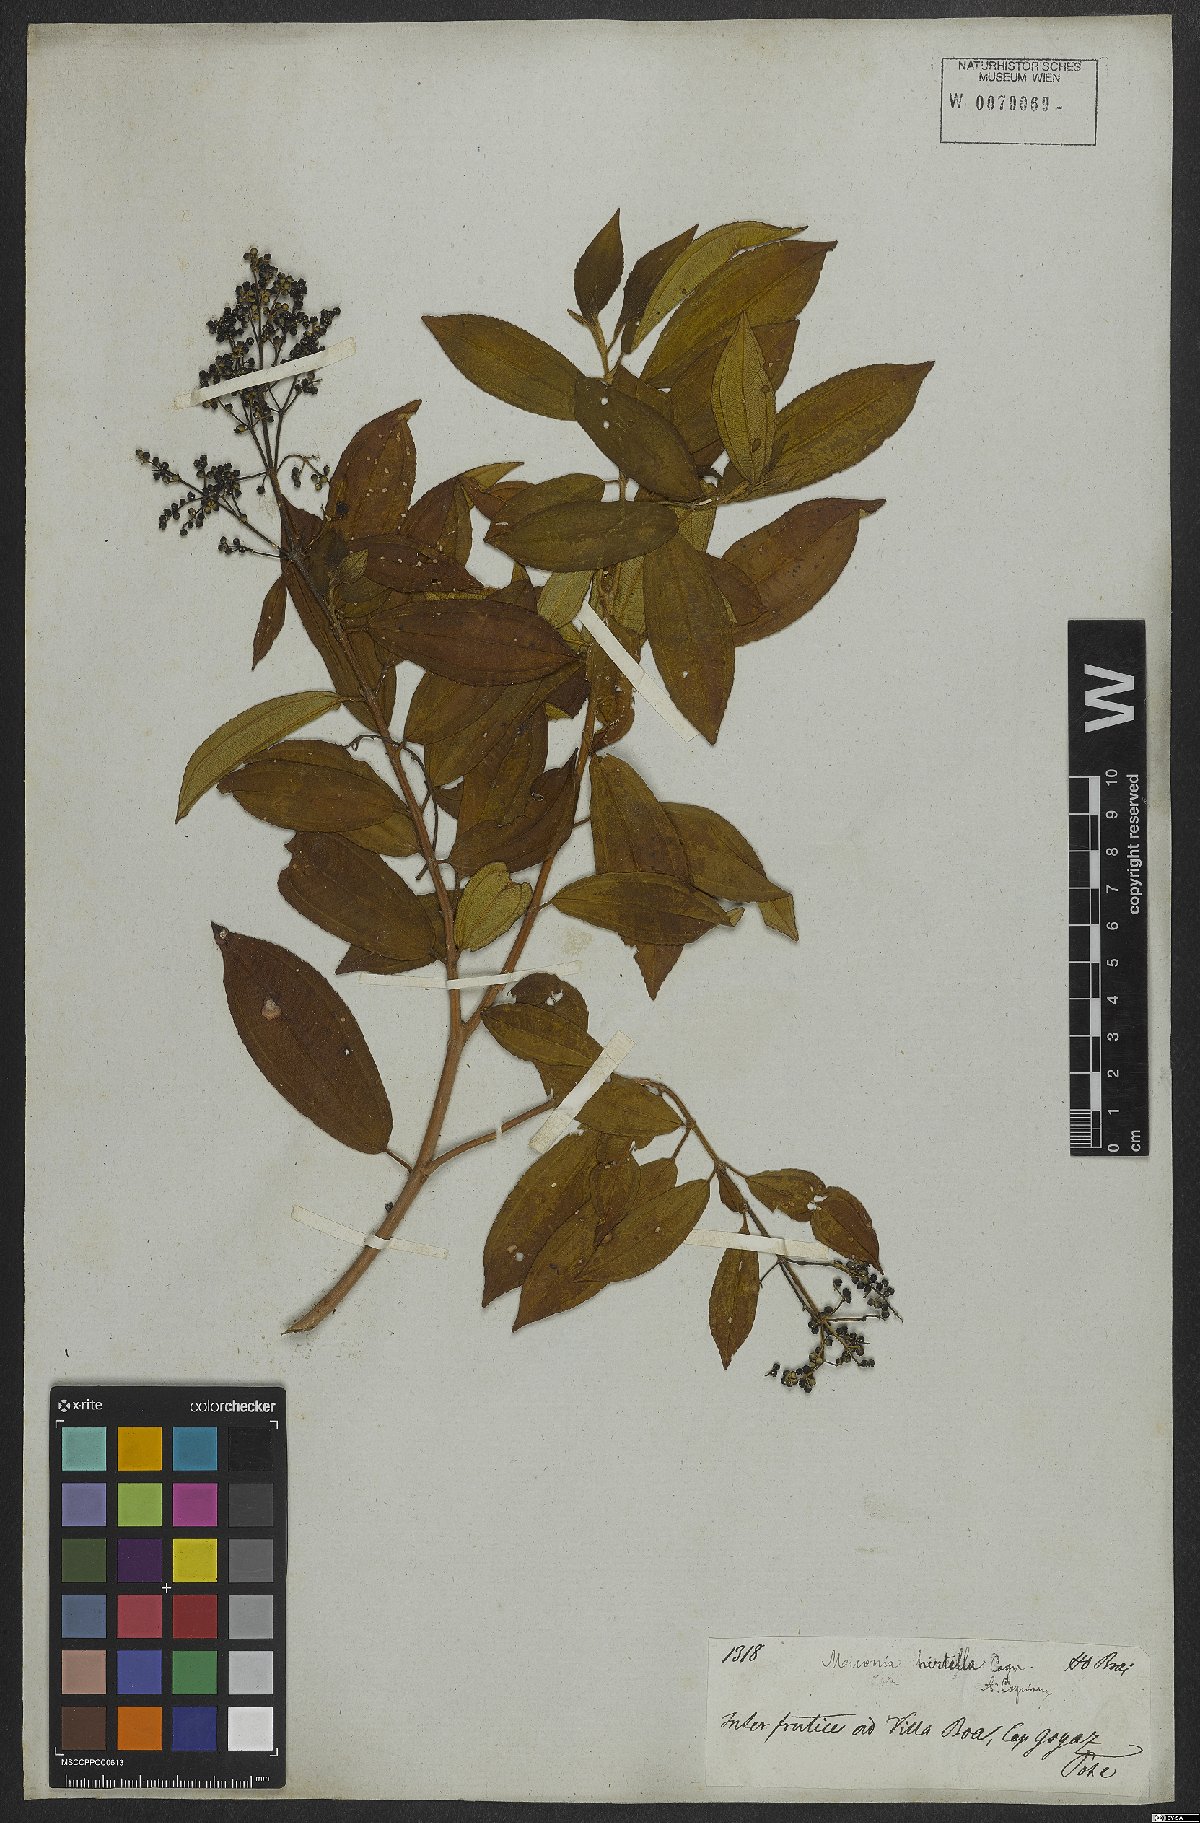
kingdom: Plantae
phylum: Tracheophyta
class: Magnoliopsida
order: Myrtales
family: Melastomataceae
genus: Miconia
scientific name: Miconia hirta
